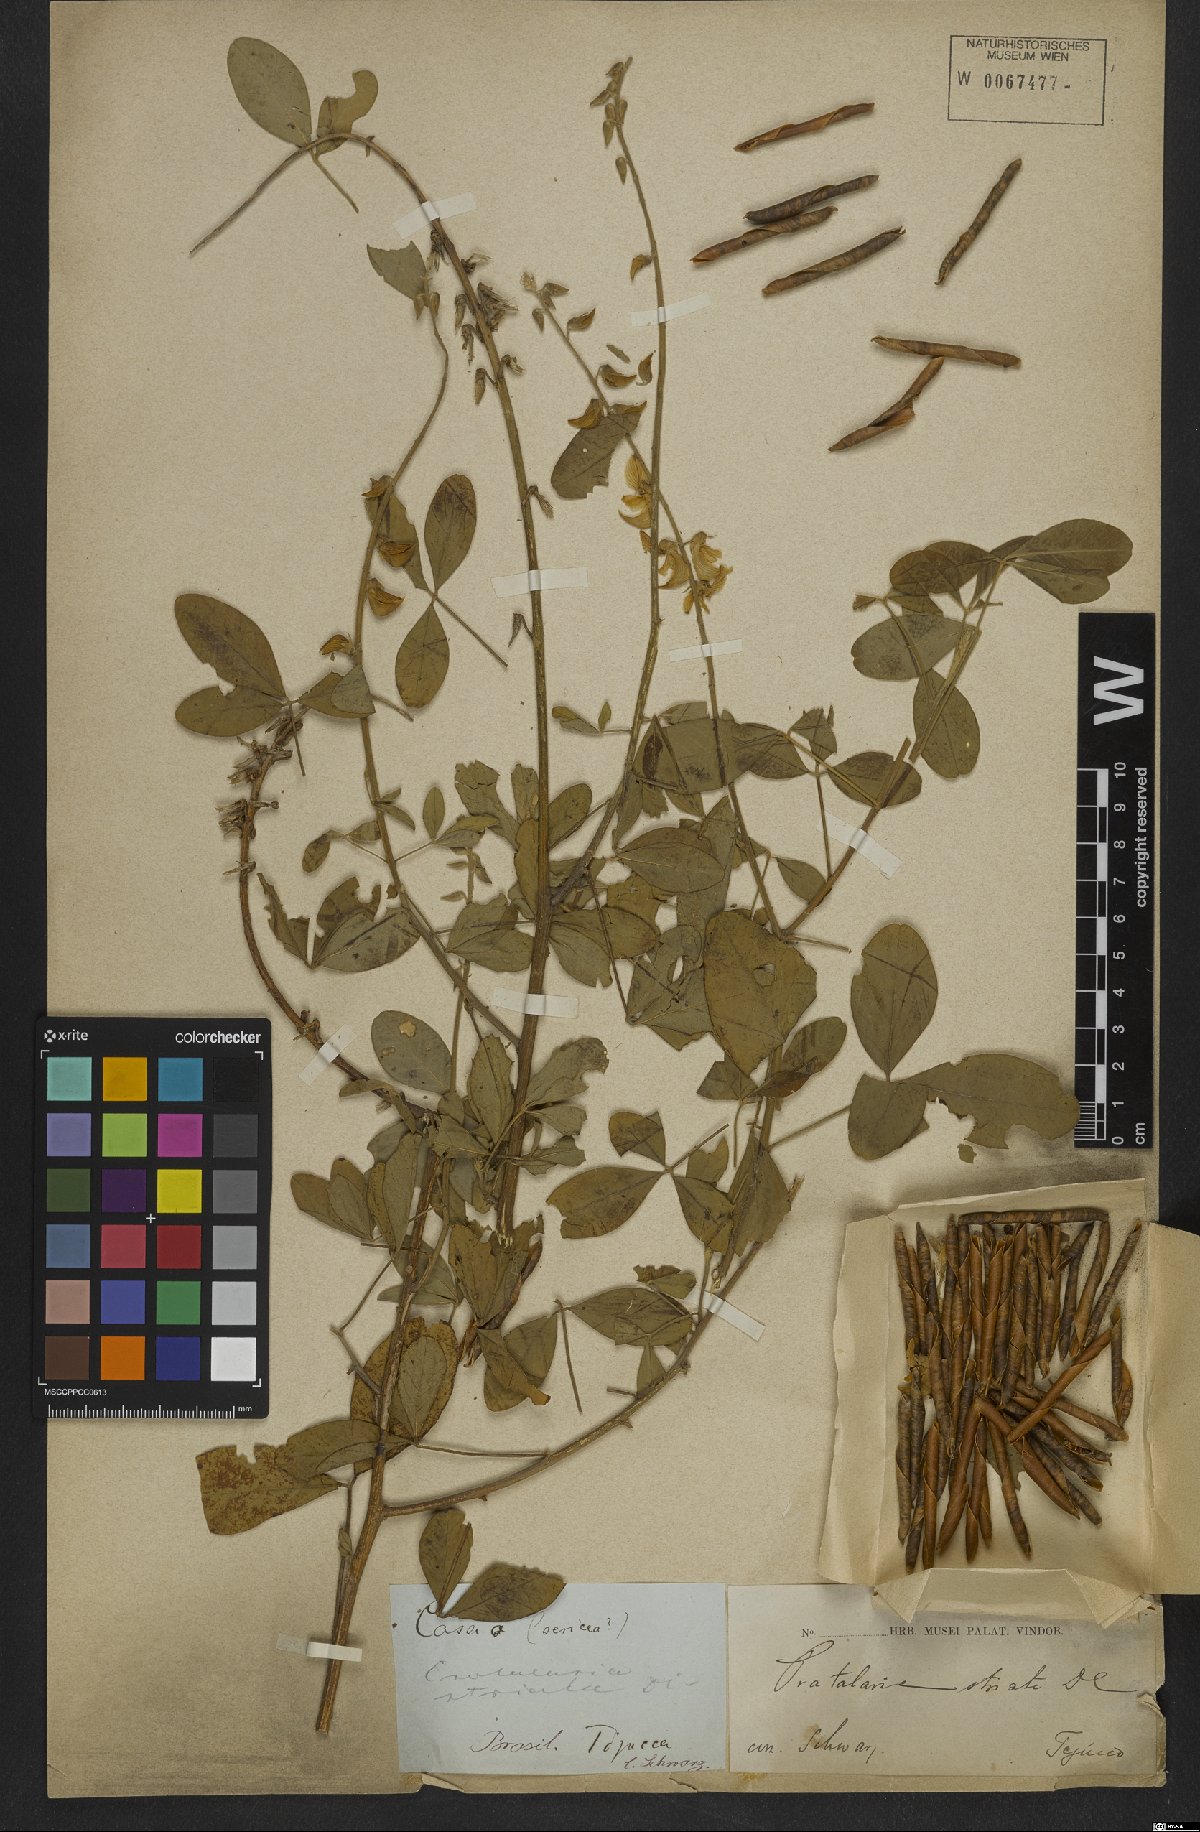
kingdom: Plantae
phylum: Tracheophyta
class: Magnoliopsida
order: Fabales
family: Fabaceae
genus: Crotalaria
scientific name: Crotalaria saltiana
